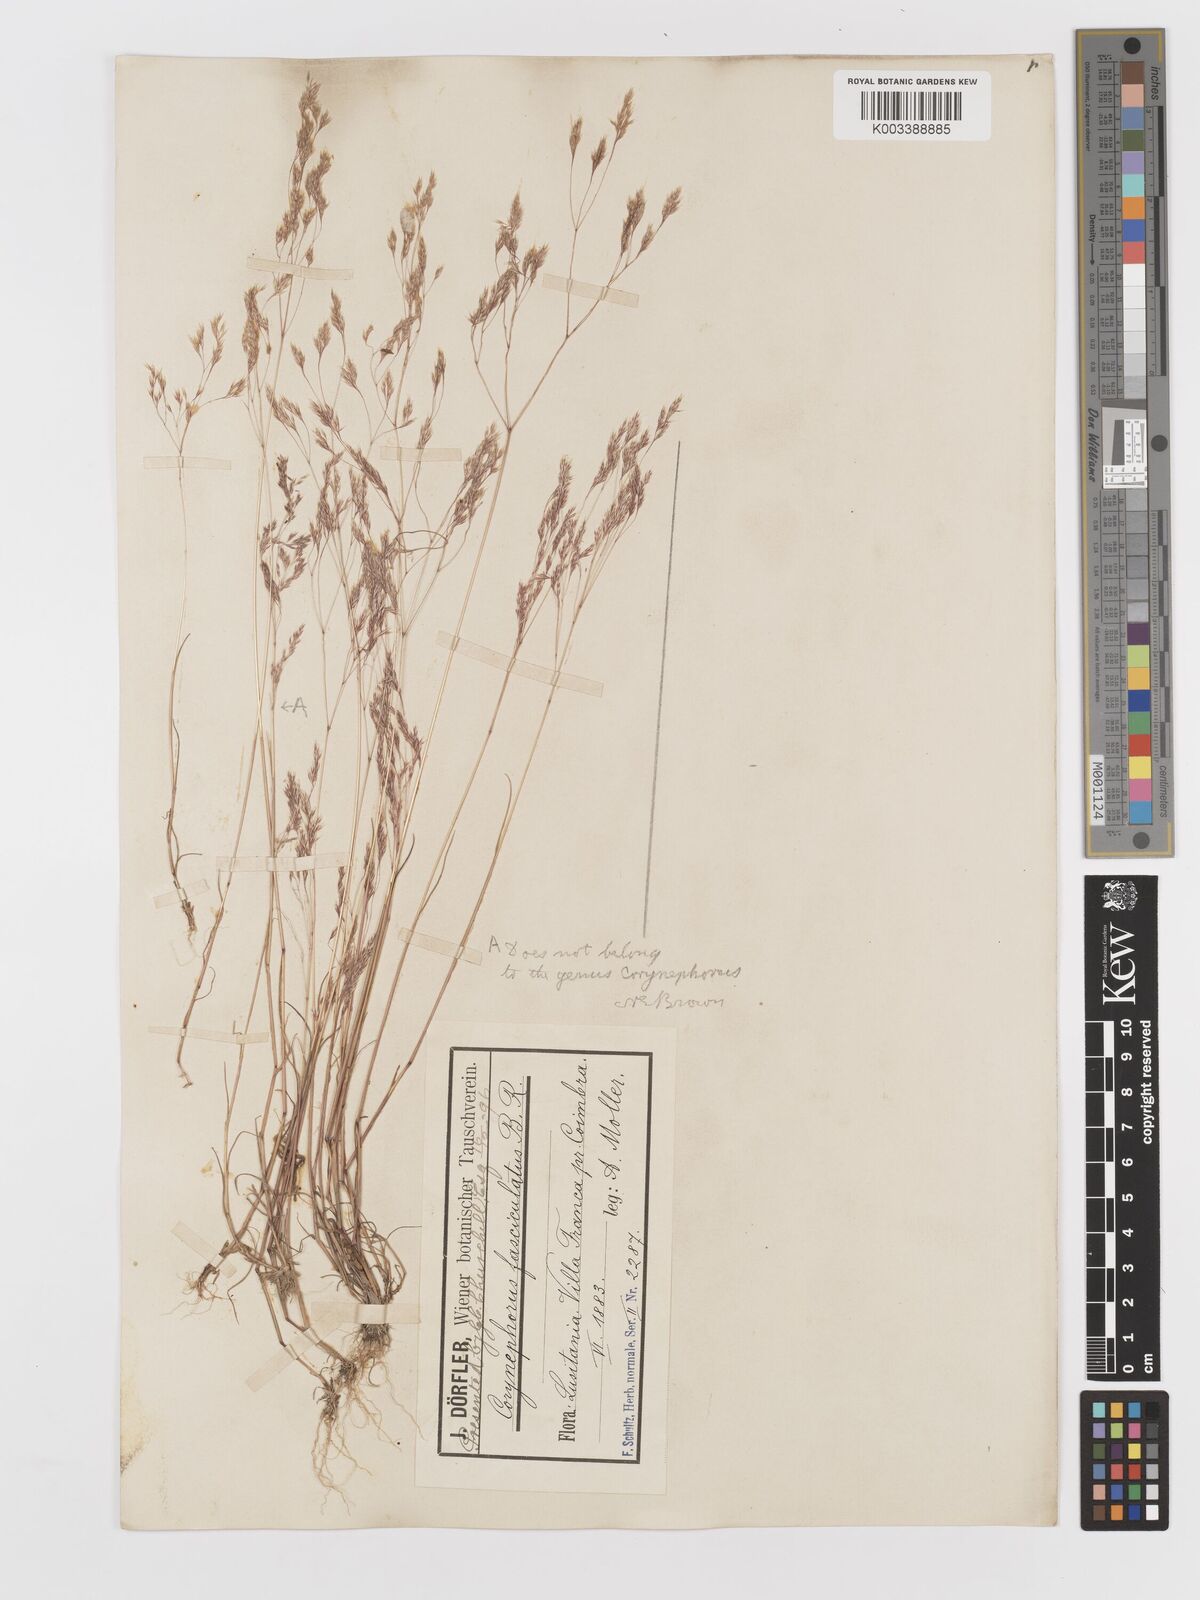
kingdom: Plantae
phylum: Tracheophyta
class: Liliopsida
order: Poales
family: Poaceae
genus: Corynephorus
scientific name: Corynephorus fasciculatus
